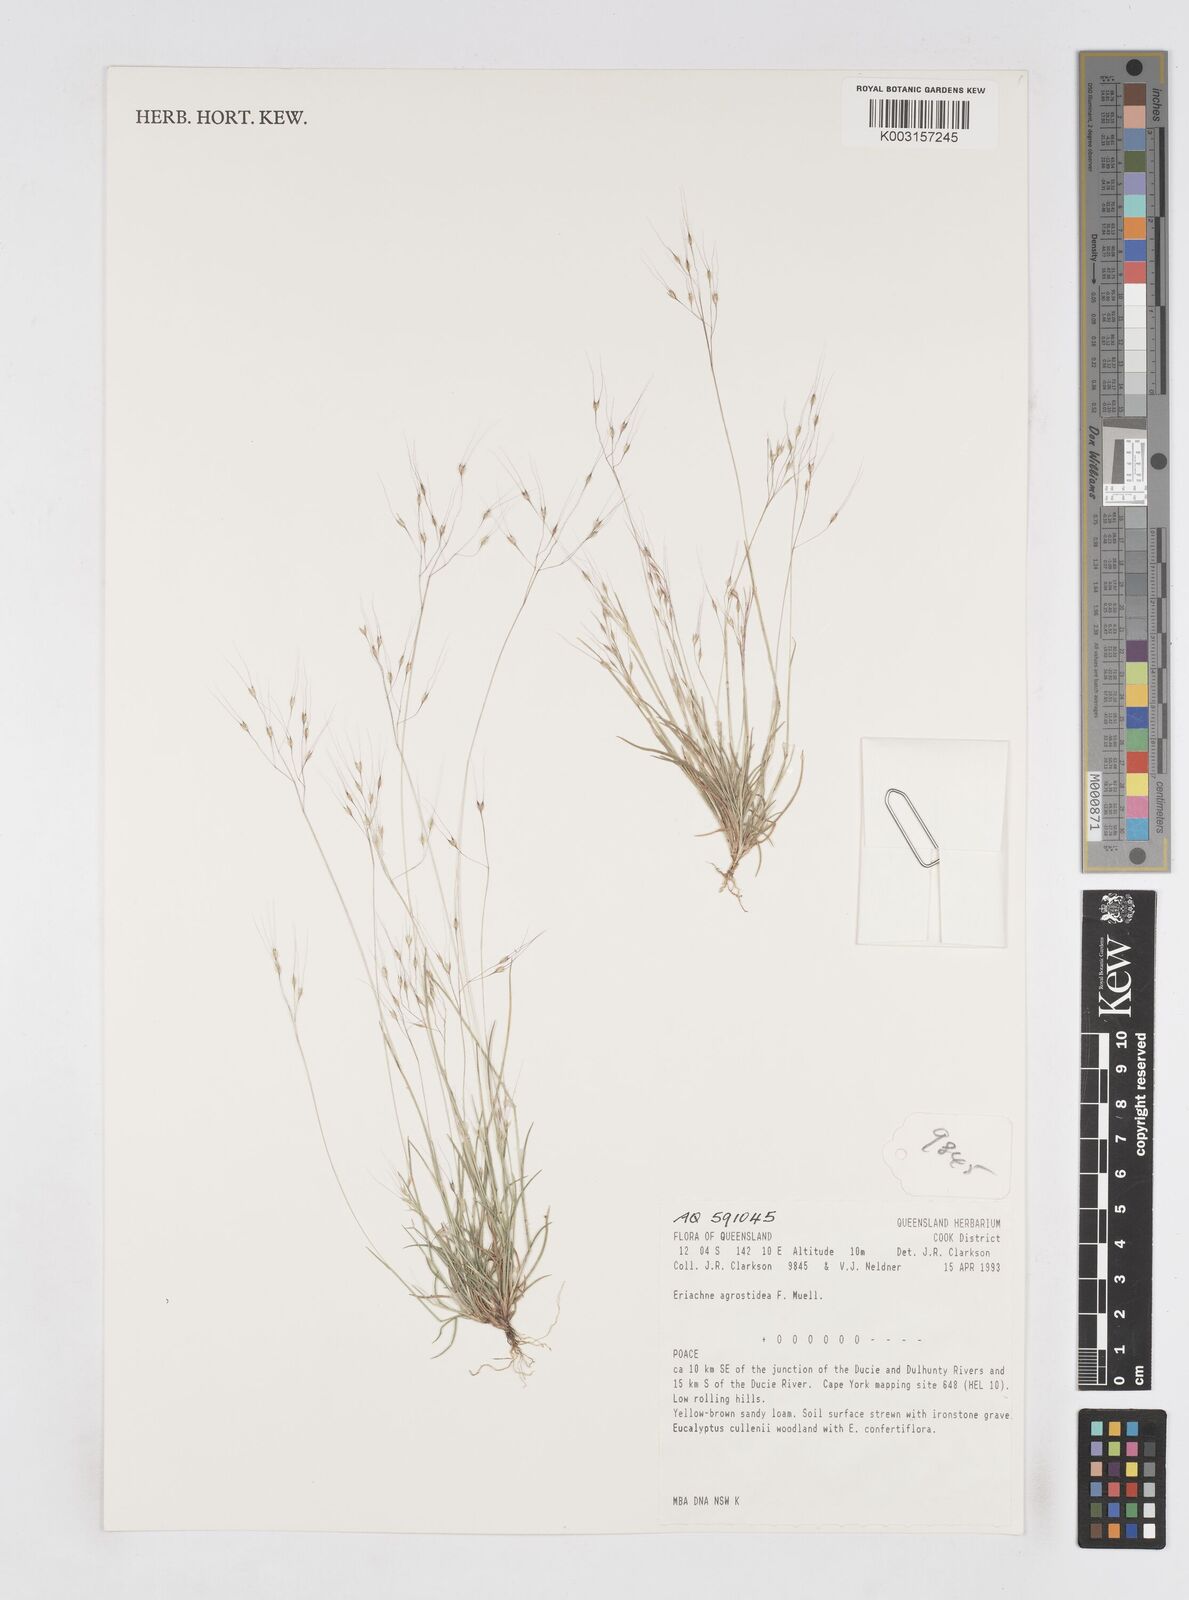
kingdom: Plantae
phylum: Tracheophyta
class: Liliopsida
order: Poales
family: Poaceae
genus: Eriachne
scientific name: Eriachne agrostidea
